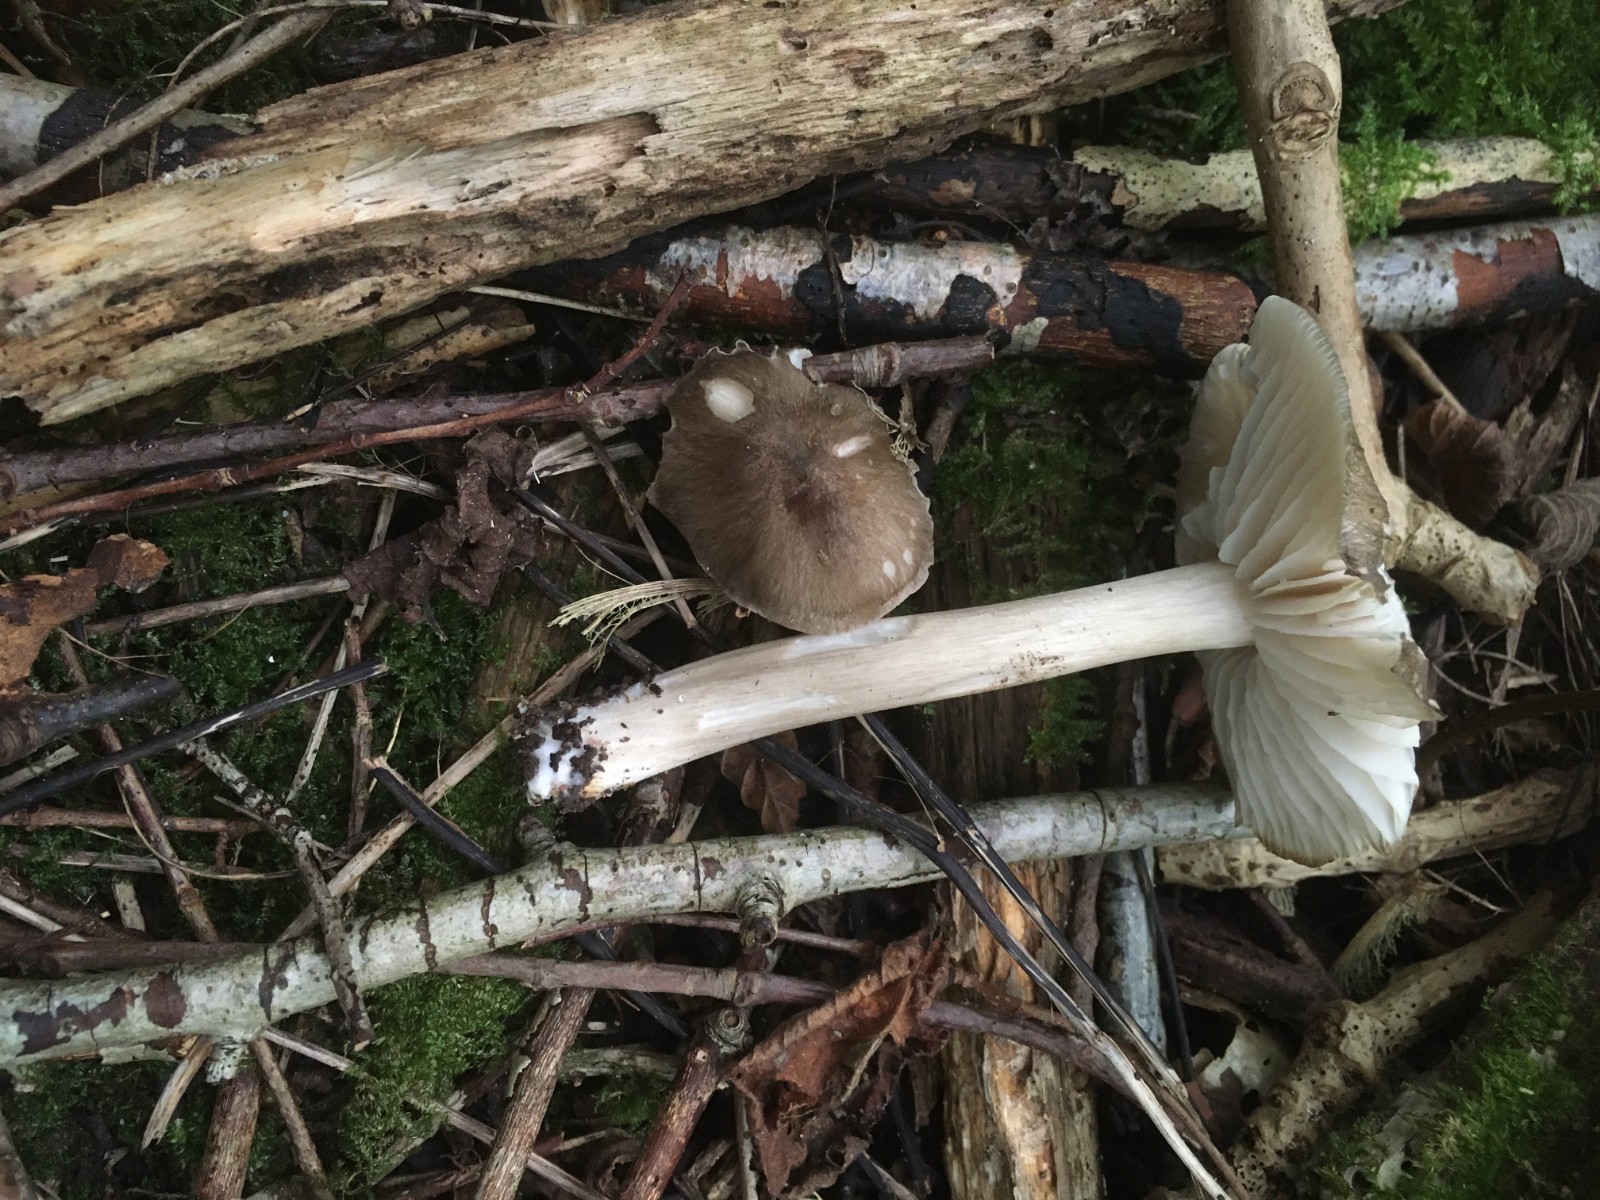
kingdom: Fungi
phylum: Basidiomycota
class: Agaricomycetes
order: Agaricales
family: Tricholomataceae
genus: Megacollybia
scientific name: Megacollybia platyphylla
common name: bredbladet væbnerhat
